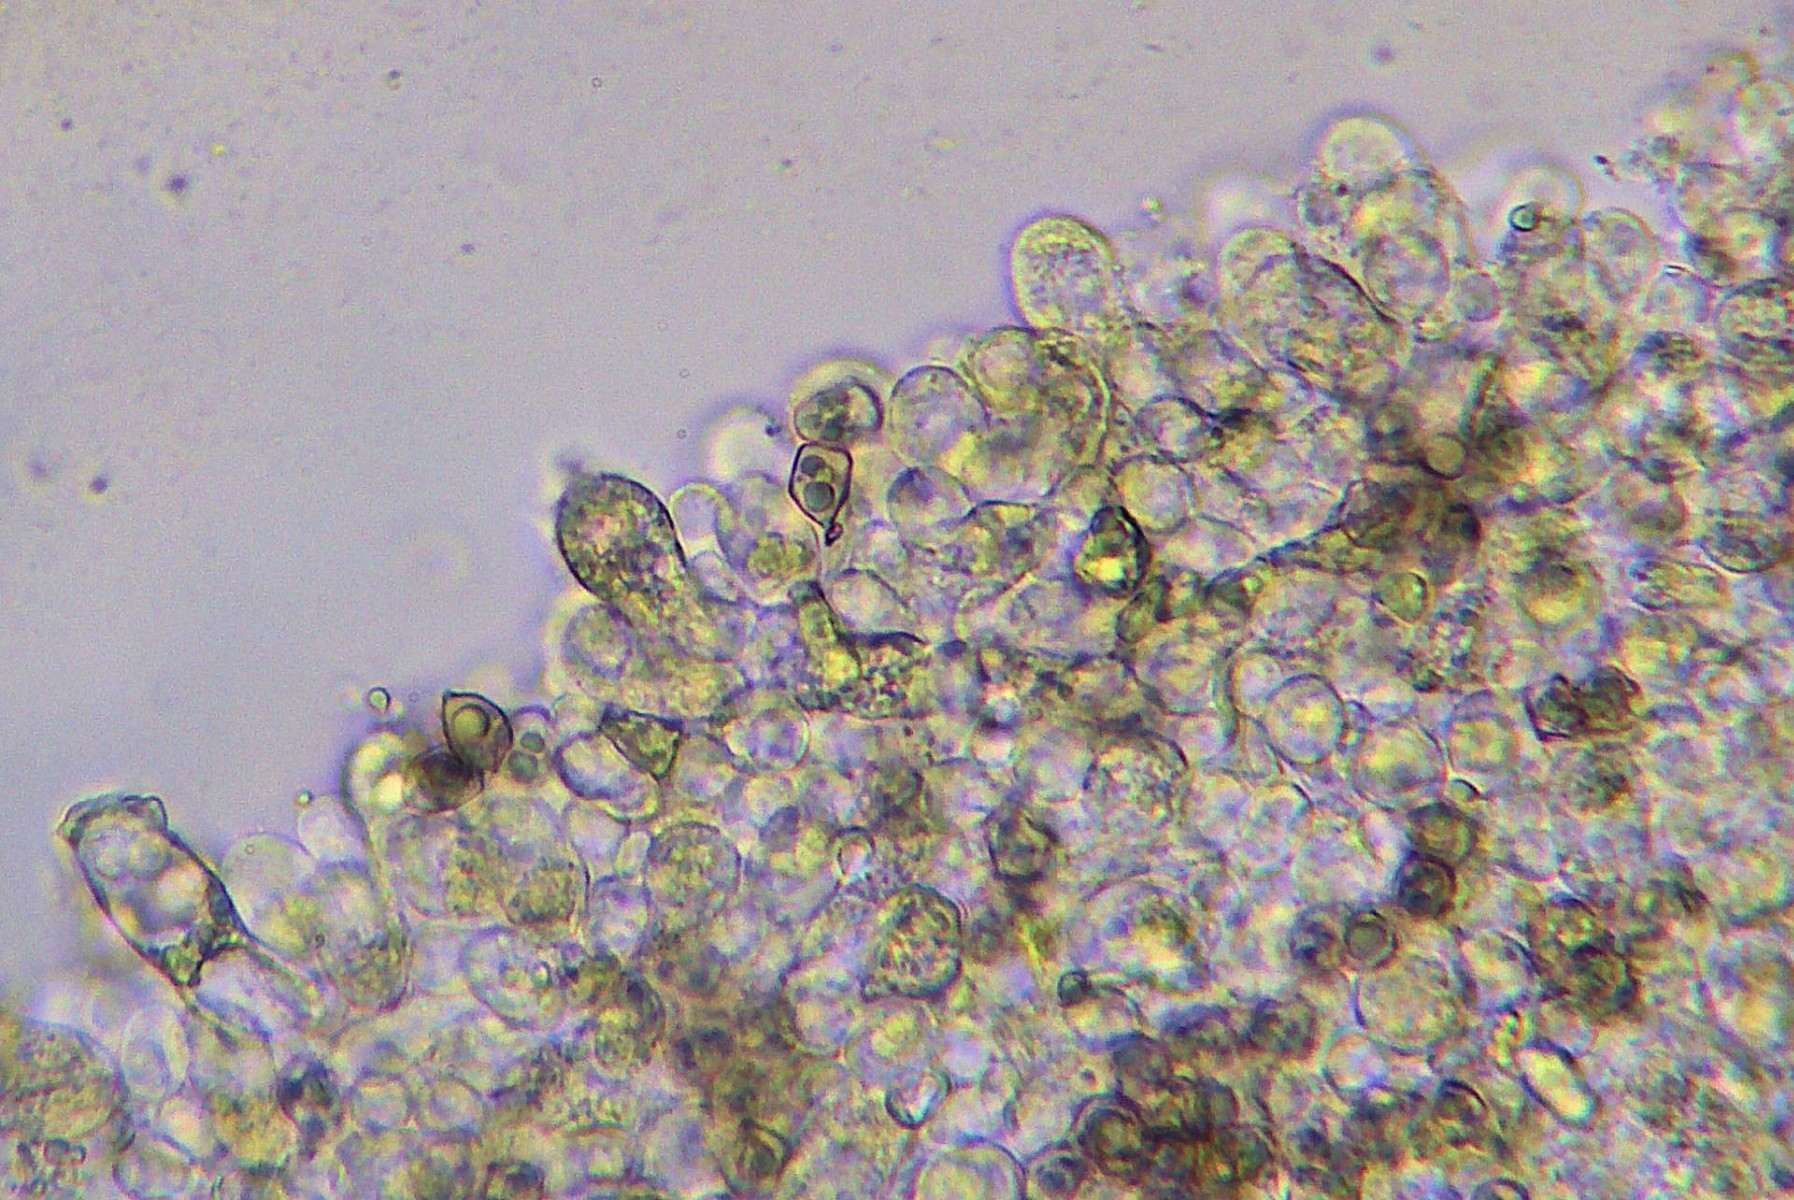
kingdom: Fungi
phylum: Basidiomycota
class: Agaricomycetes
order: Agaricales
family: Entolomataceae
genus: Entoloma
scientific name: Entoloma chalybeum
